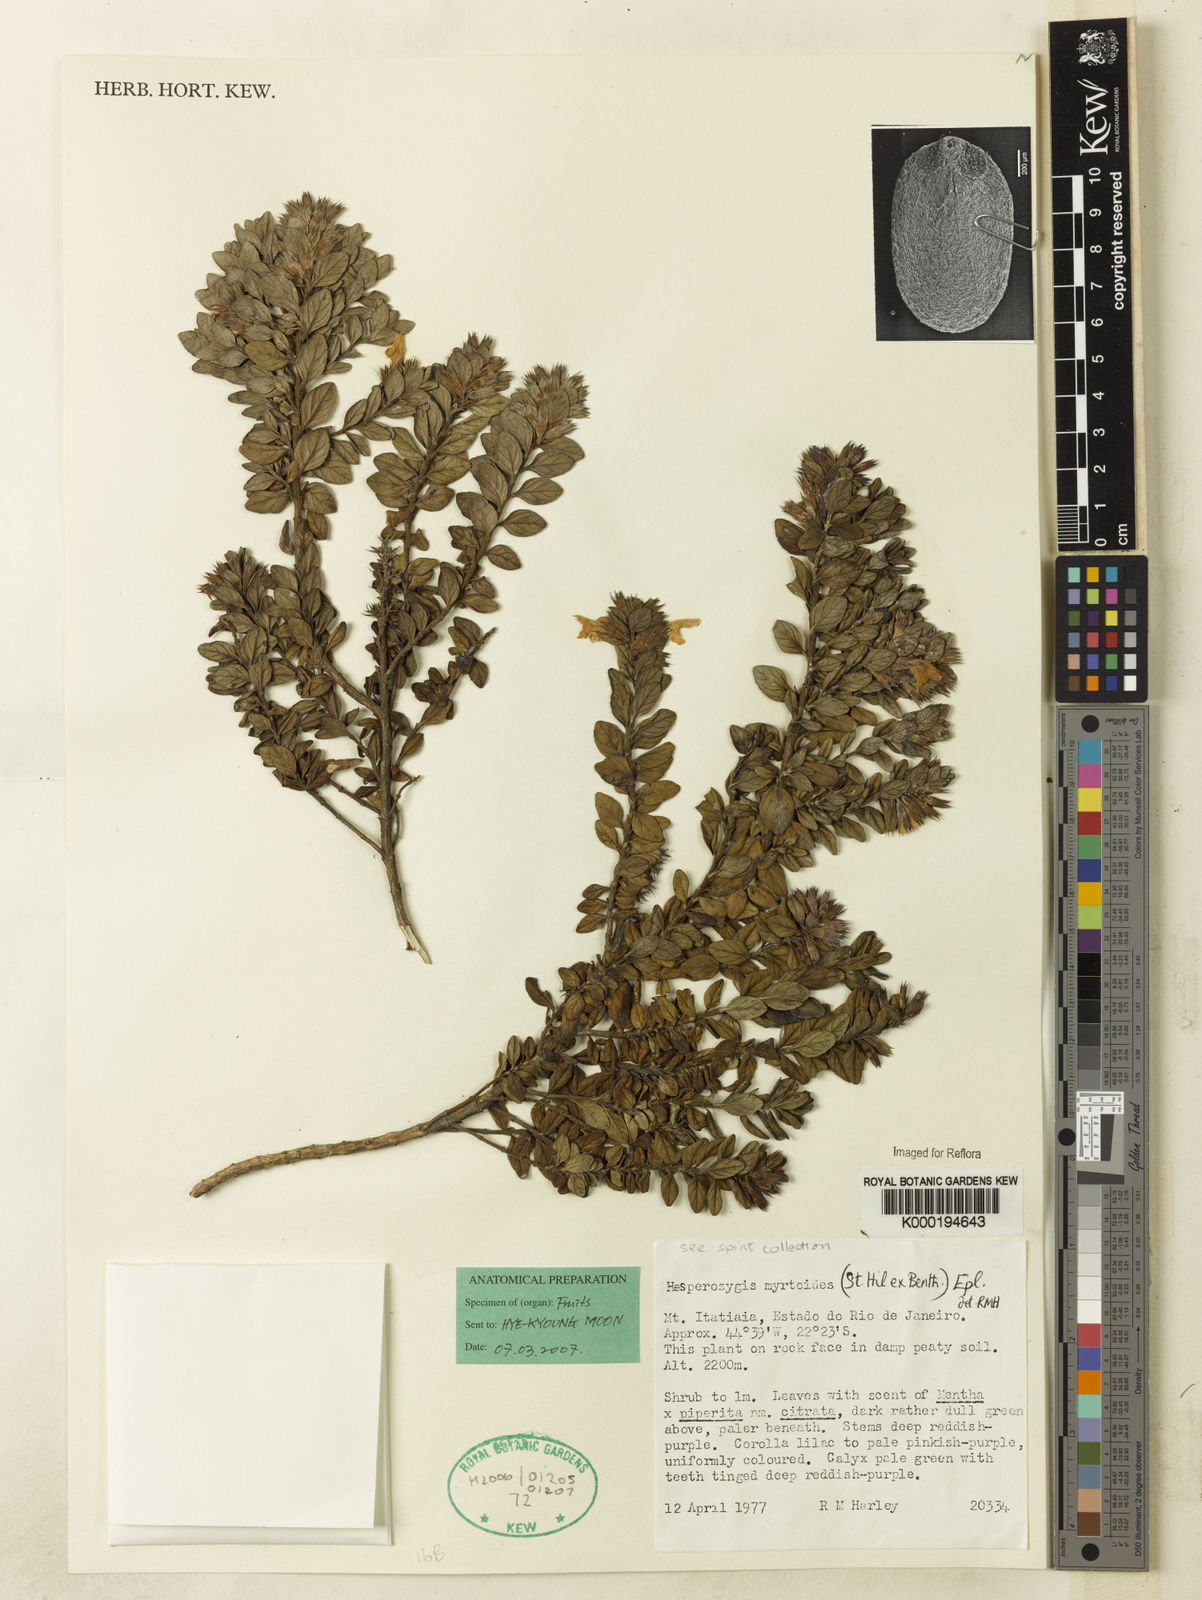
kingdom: Plantae
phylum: Tracheophyta
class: Magnoliopsida
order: Lamiales
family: Lamiaceae
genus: Hesperozygis
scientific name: Hesperozygis myrtoides
